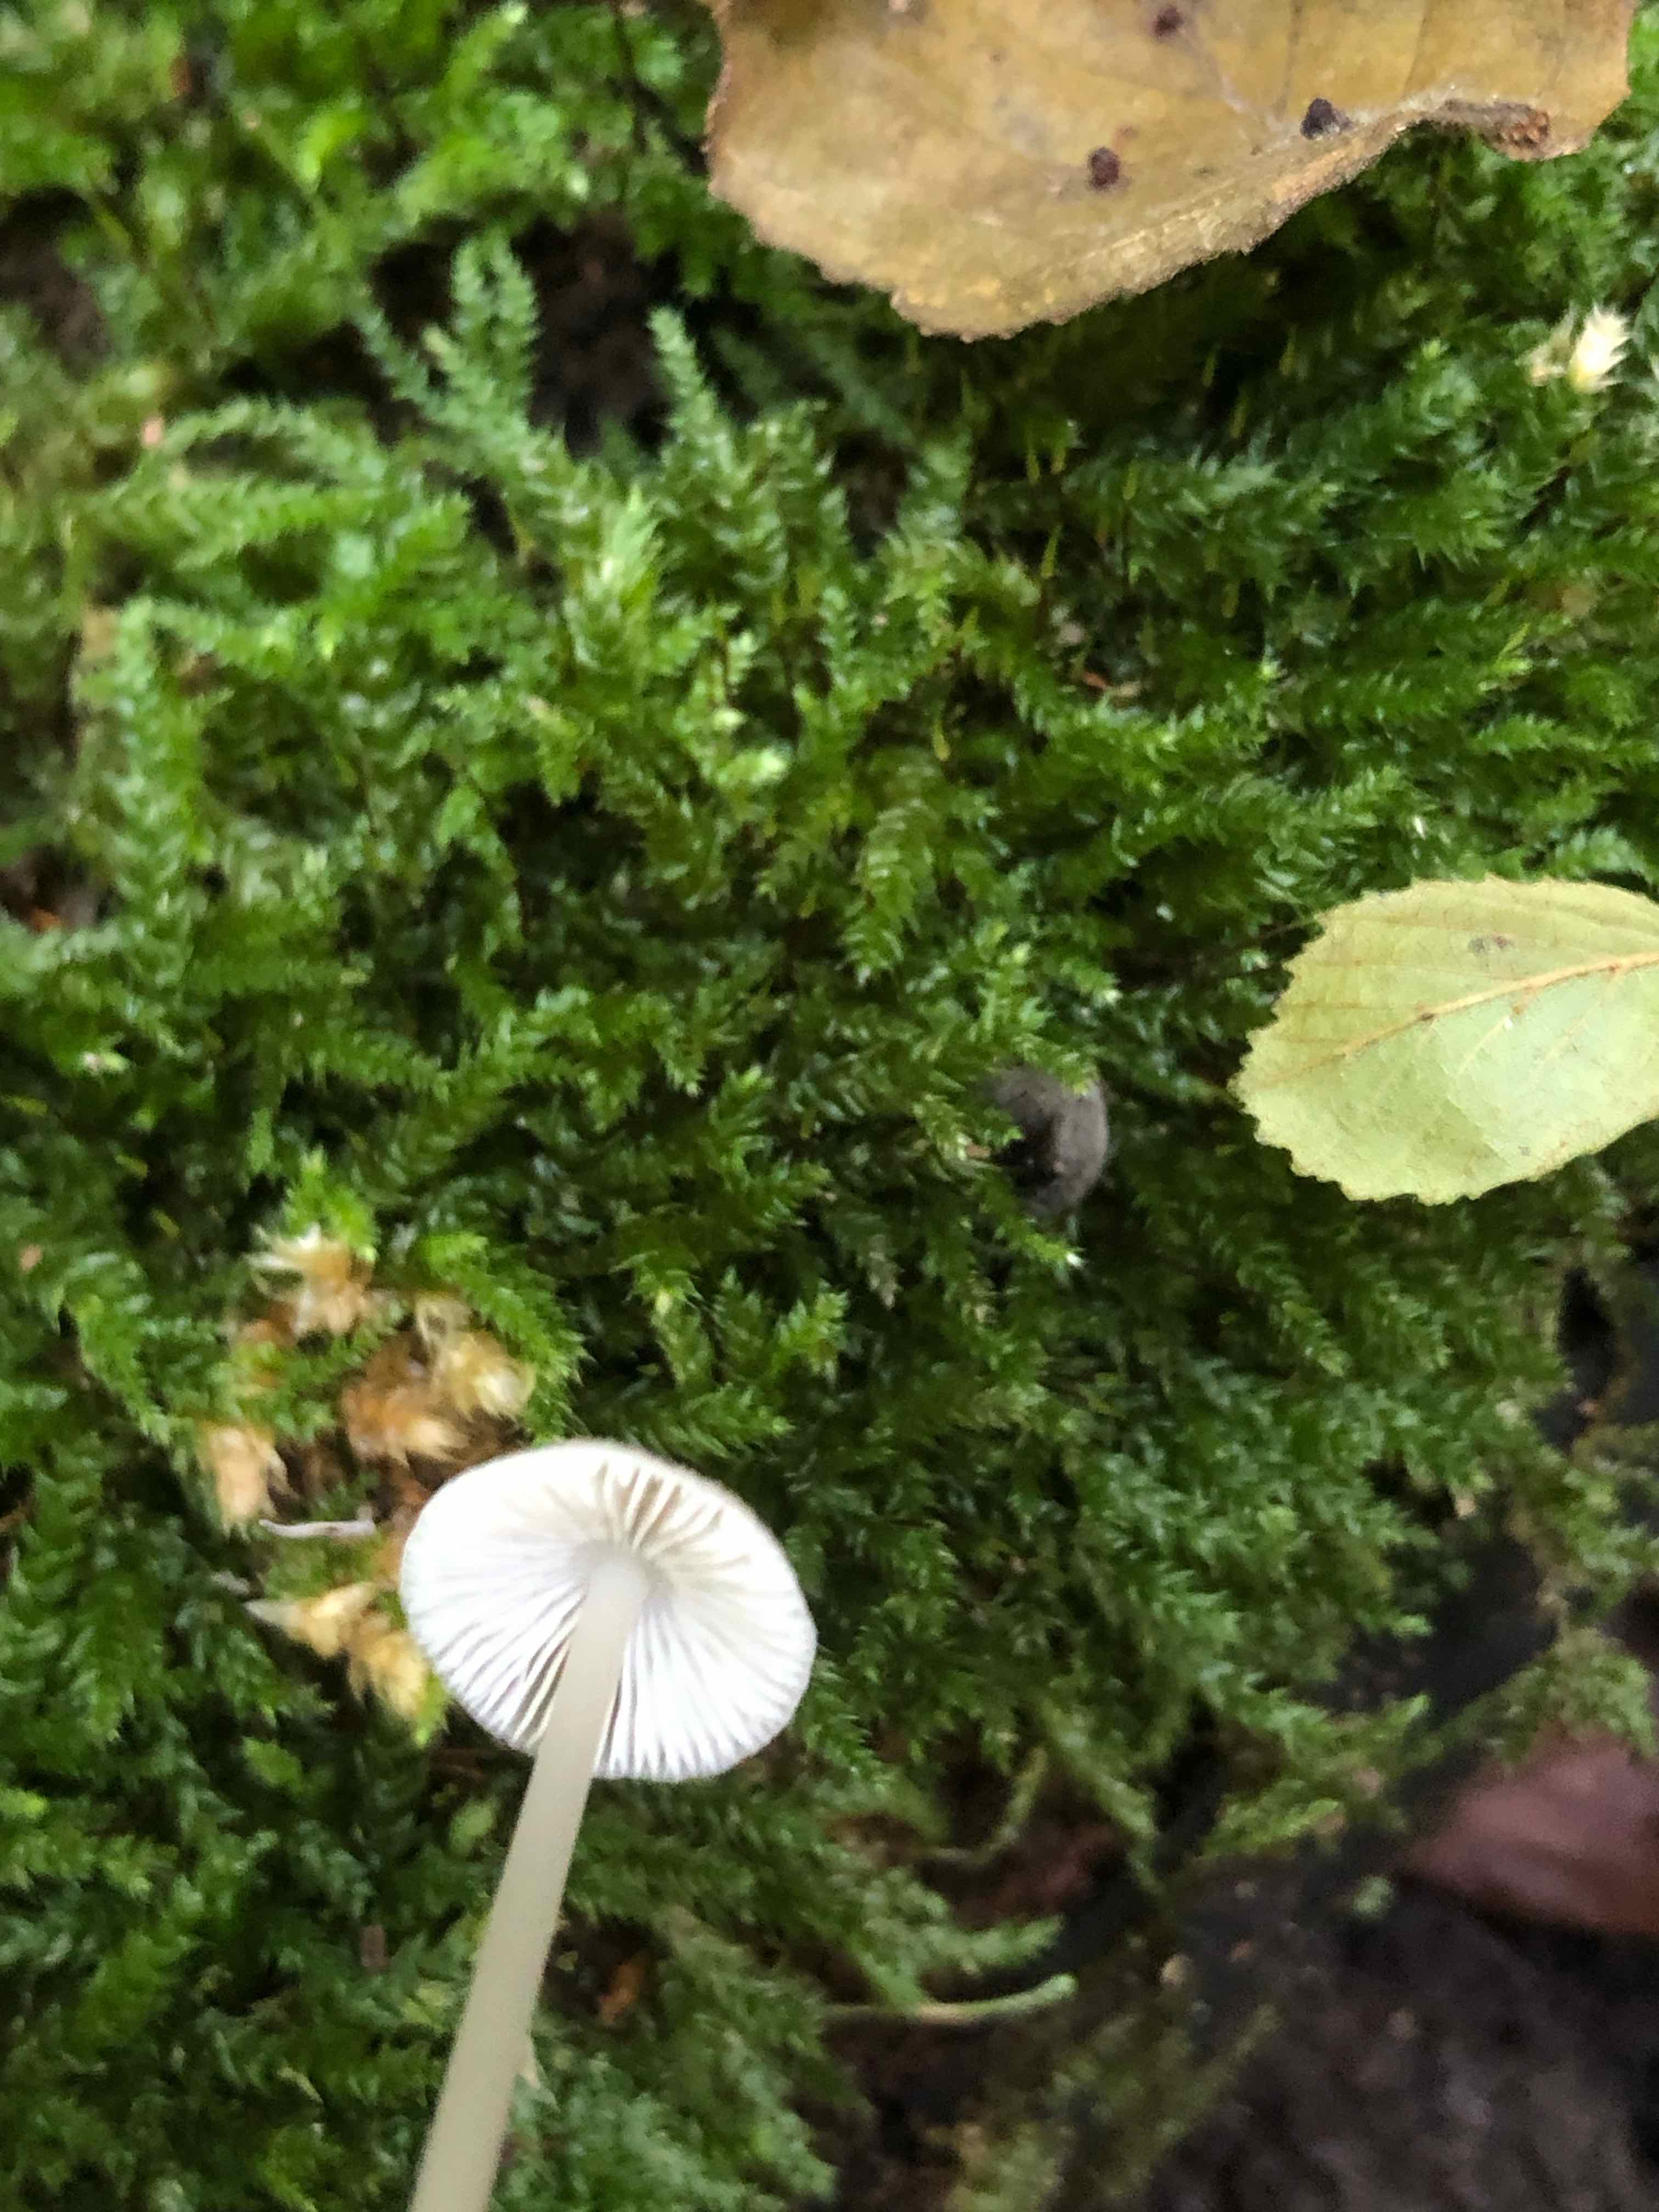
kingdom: Fungi
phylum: Basidiomycota
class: Agaricomycetes
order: Agaricales
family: Mycenaceae
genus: Mycena
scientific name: Mycena
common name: huesvamp
